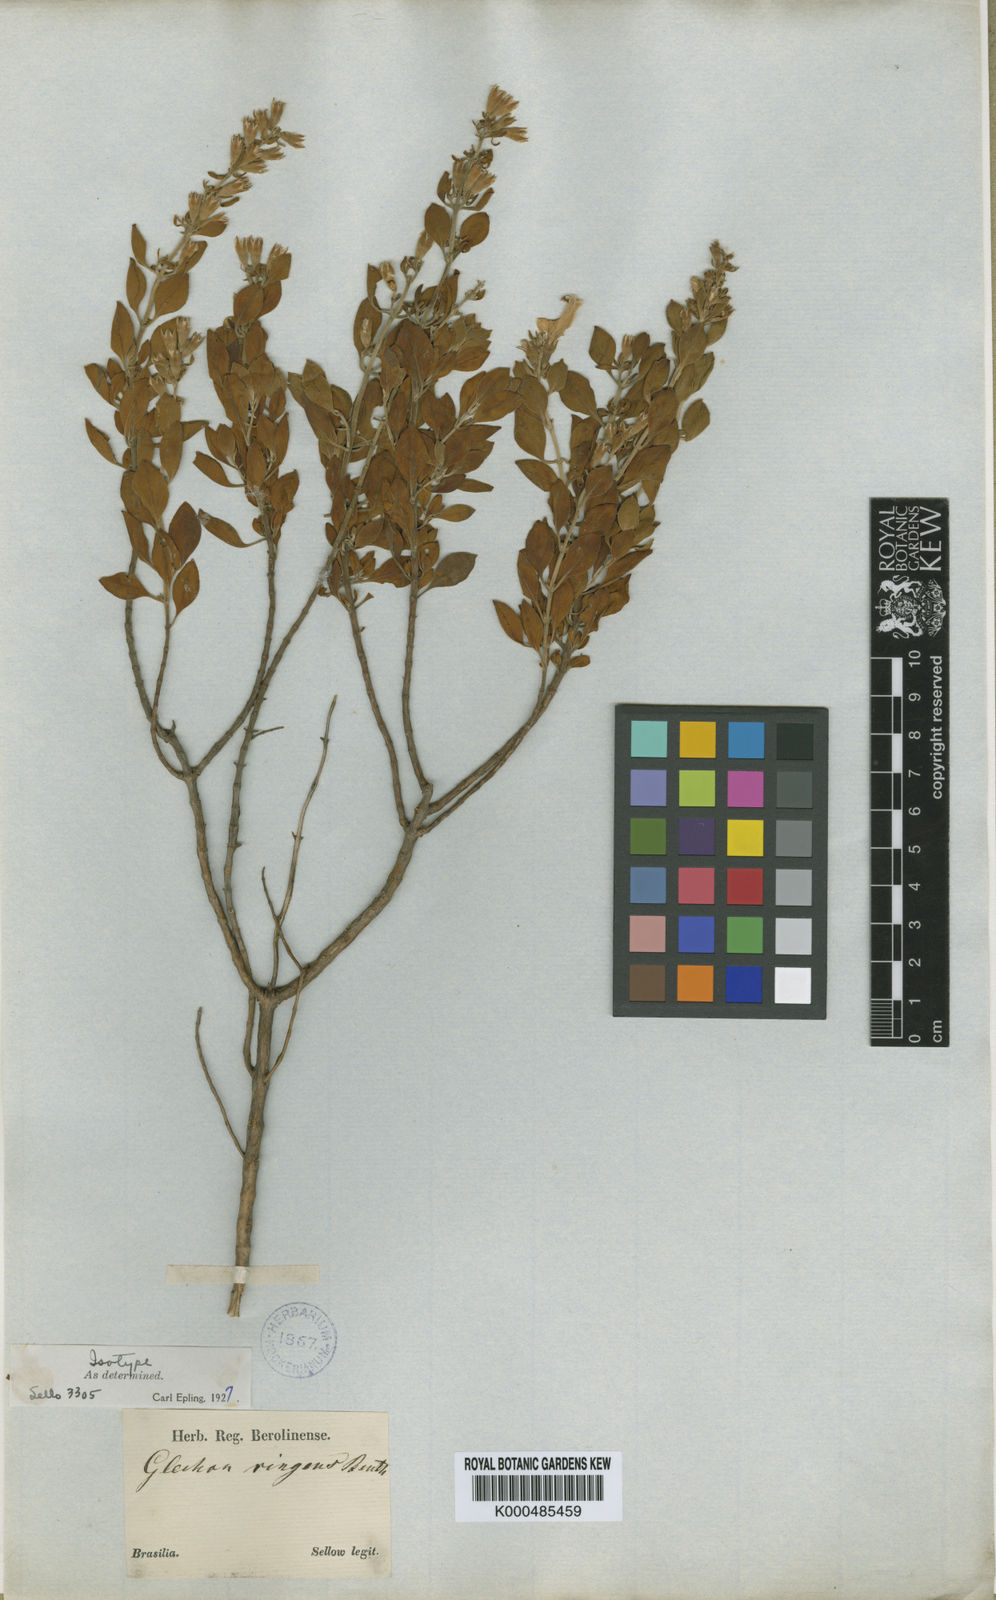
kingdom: Plantae
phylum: Tracheophyta
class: Magnoliopsida
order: Lamiales
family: Lamiaceae
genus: Hesperozygis
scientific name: Hesperozygis ringens
